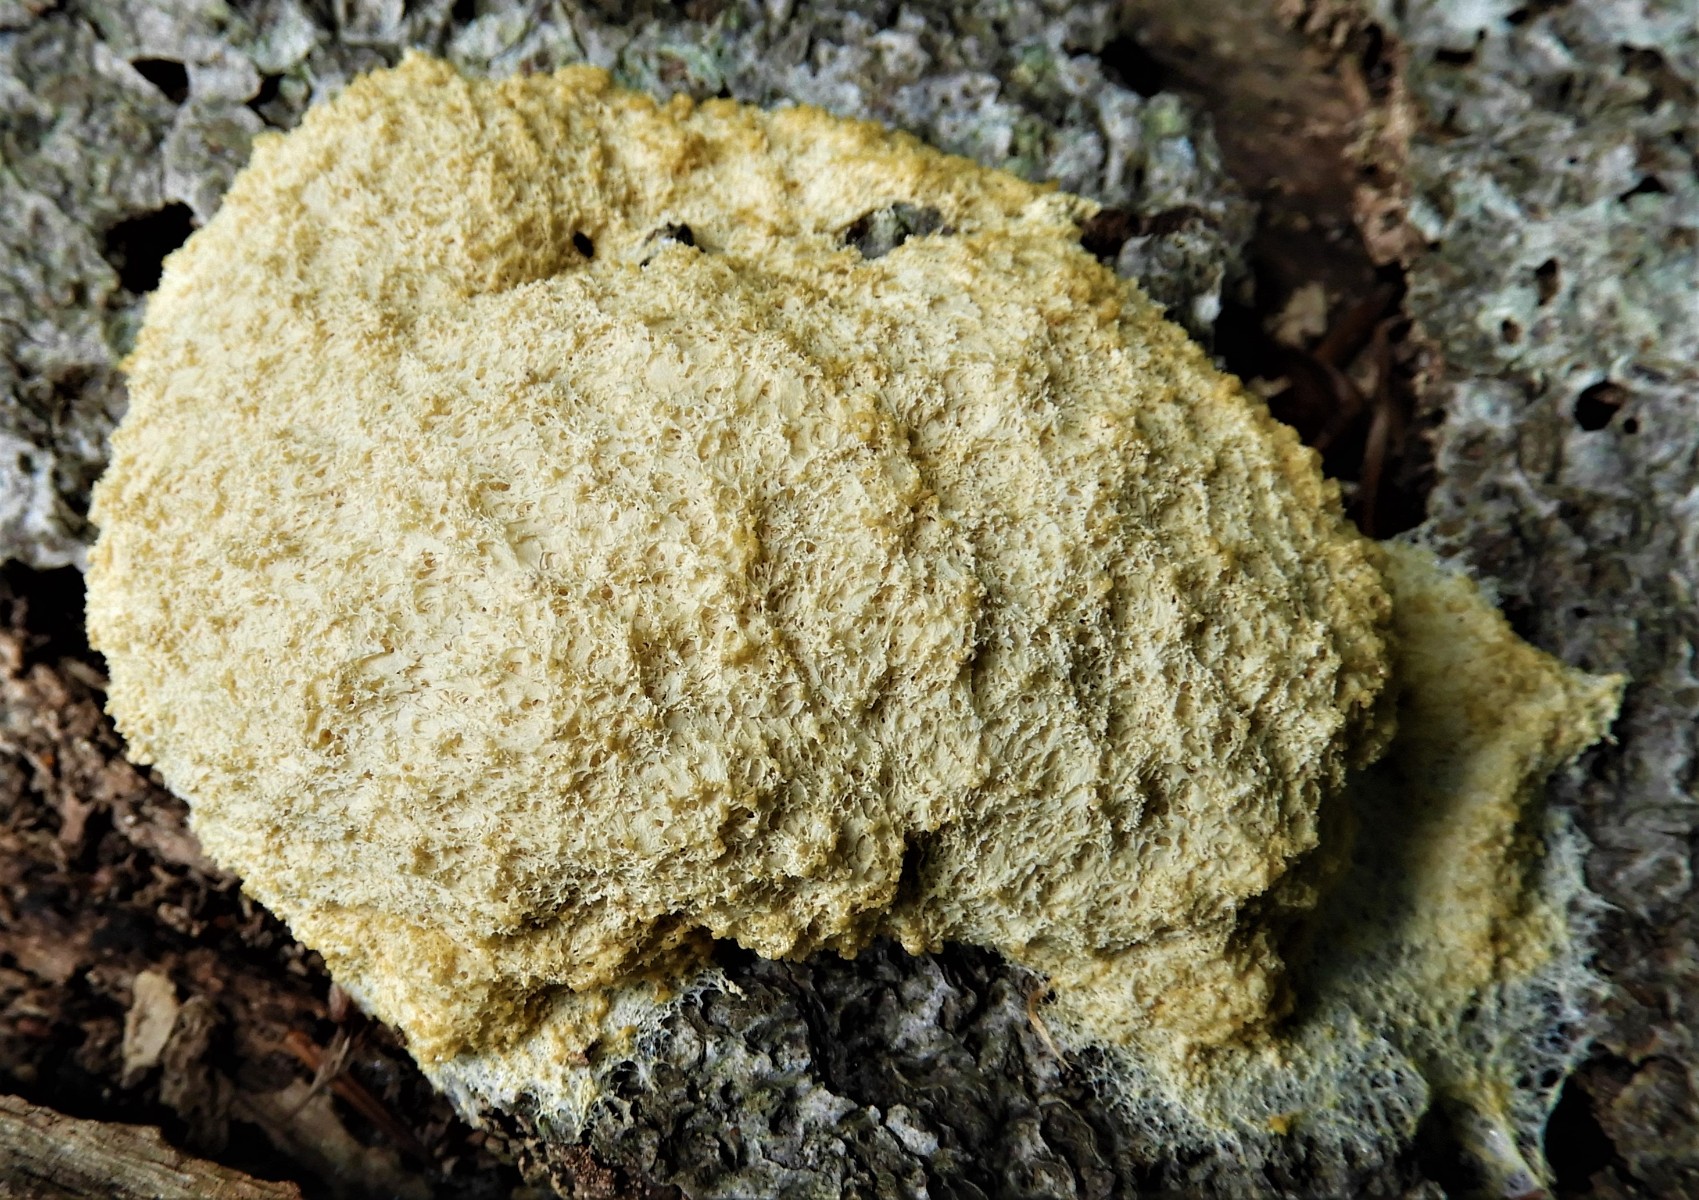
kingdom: Protozoa
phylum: Mycetozoa
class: Myxomycetes
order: Physarales
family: Physaraceae
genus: Fuligo
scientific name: Fuligo septica
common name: gul troldsmør
